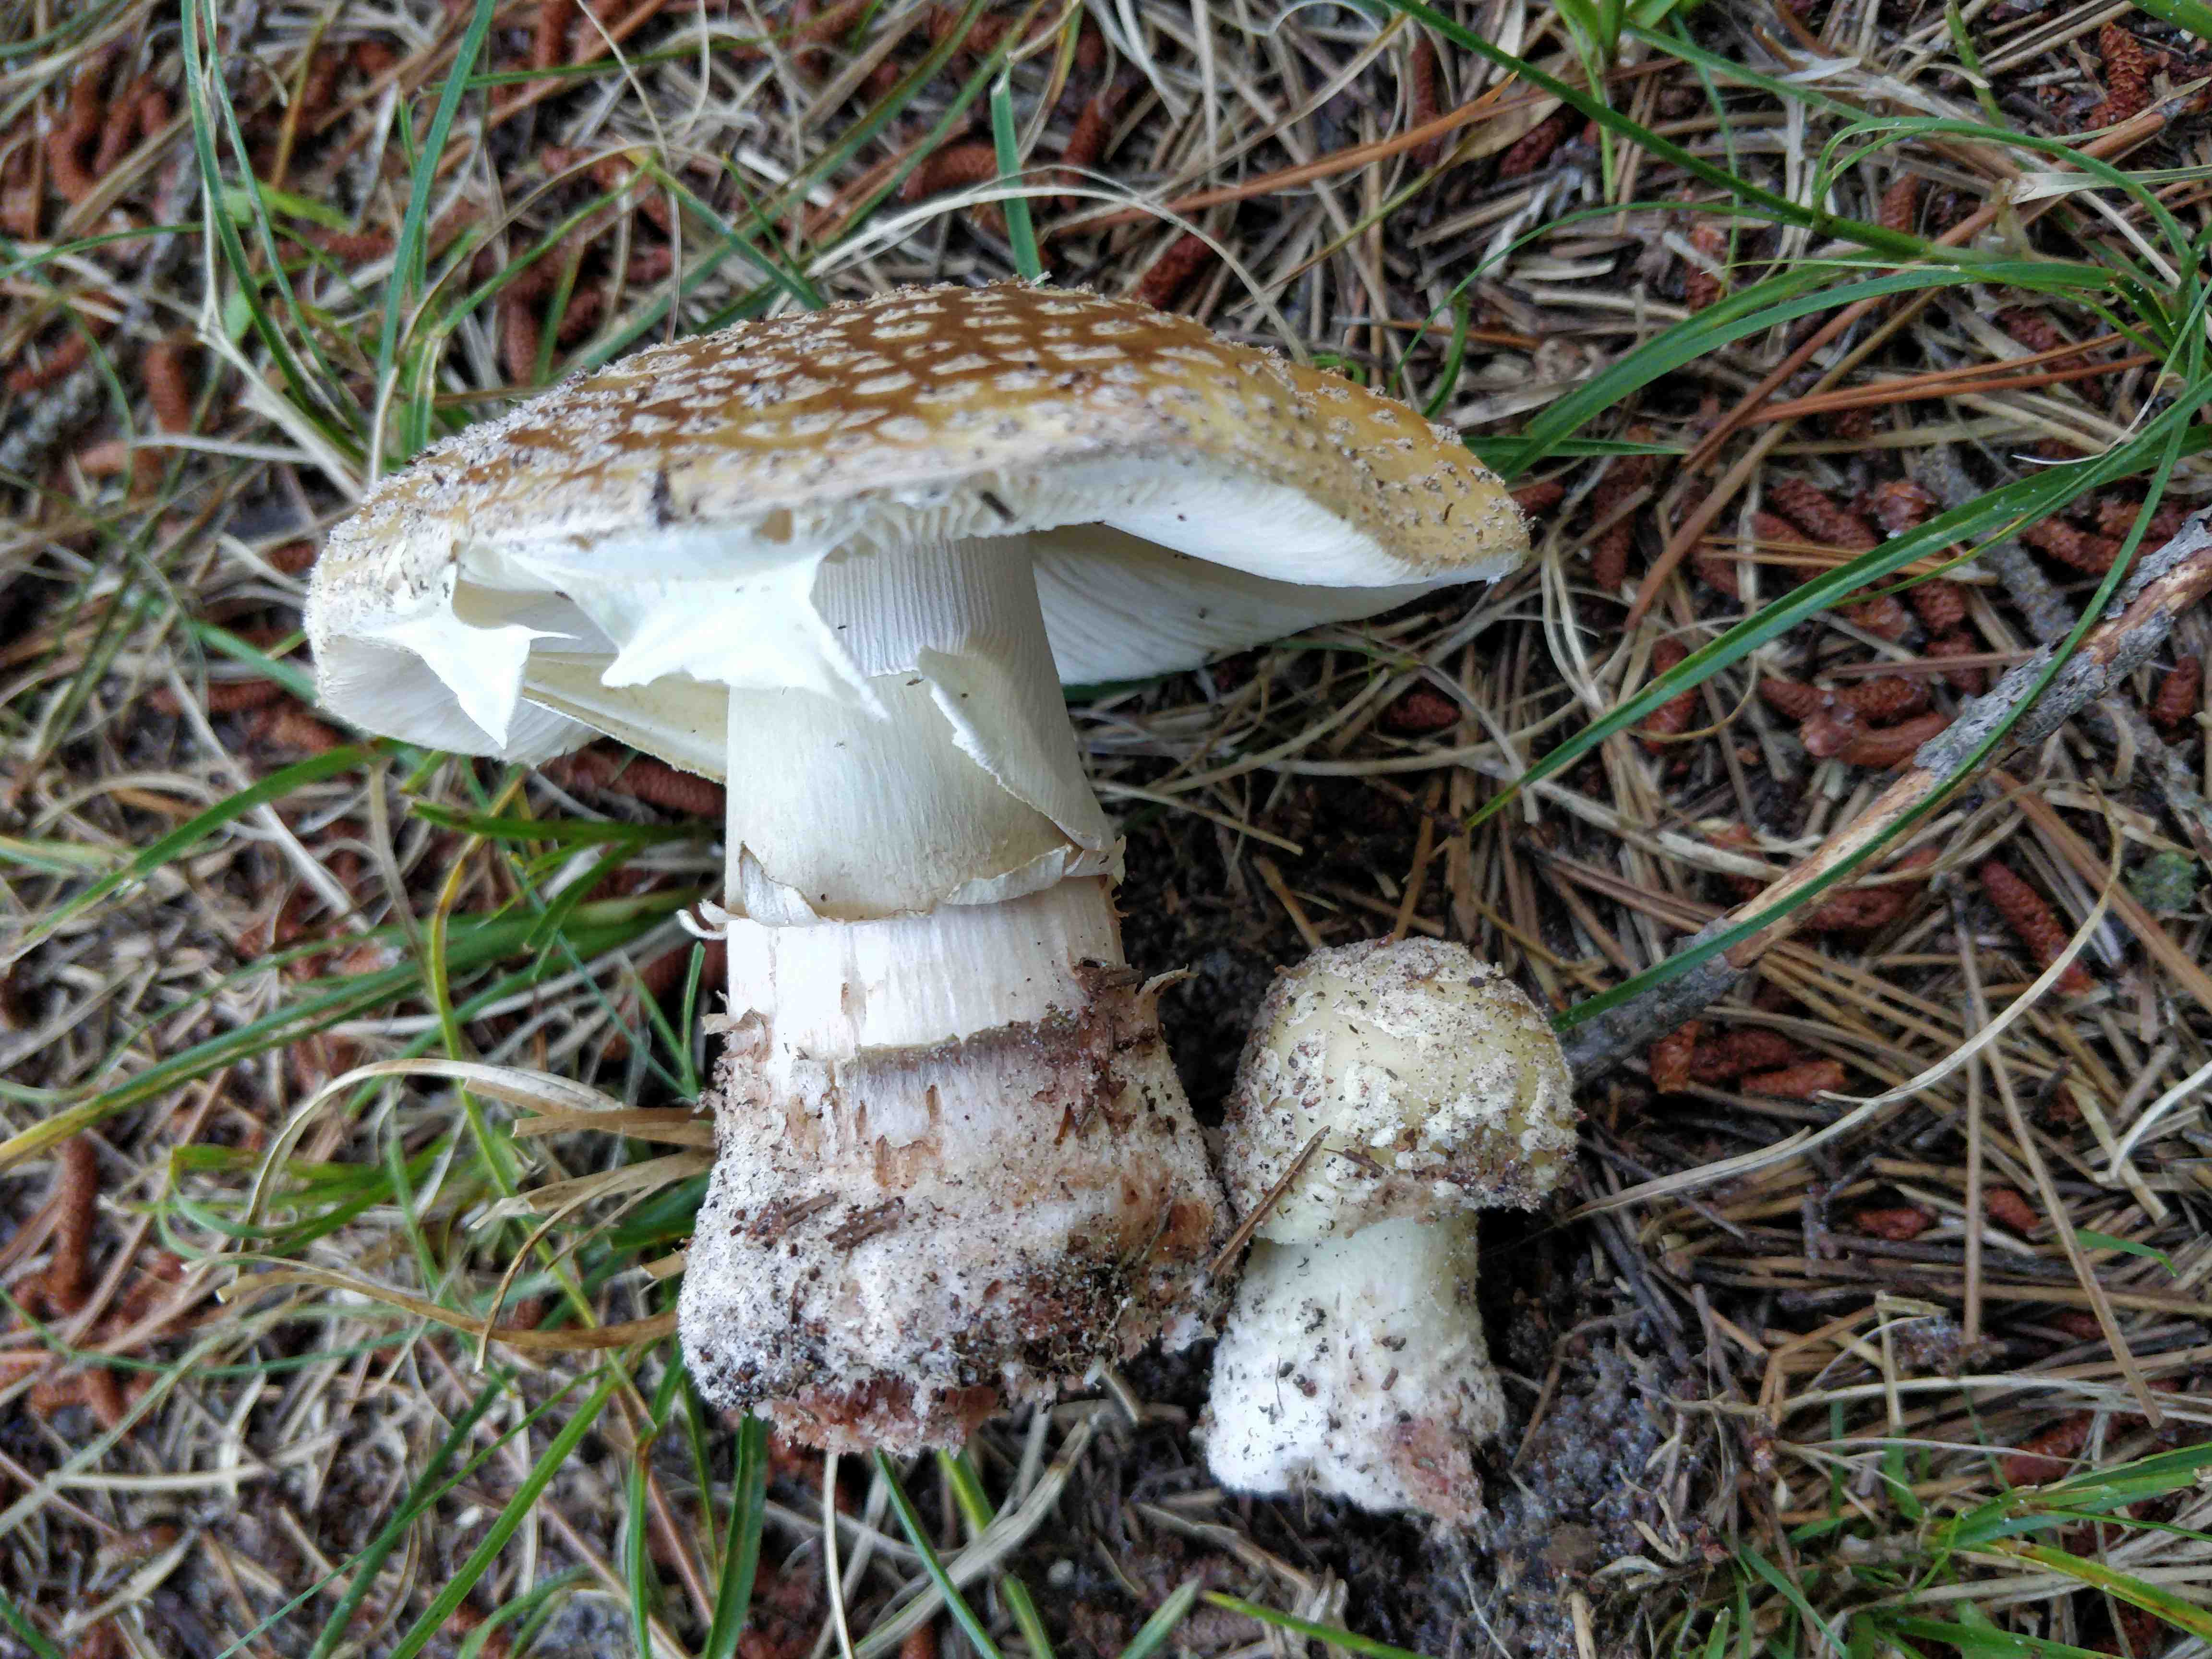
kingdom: Fungi
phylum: Basidiomycota
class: Agaricomycetes
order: Agaricales
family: Amanitaceae
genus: Amanita
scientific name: Amanita rubescens
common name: rødmende fluesvamp
